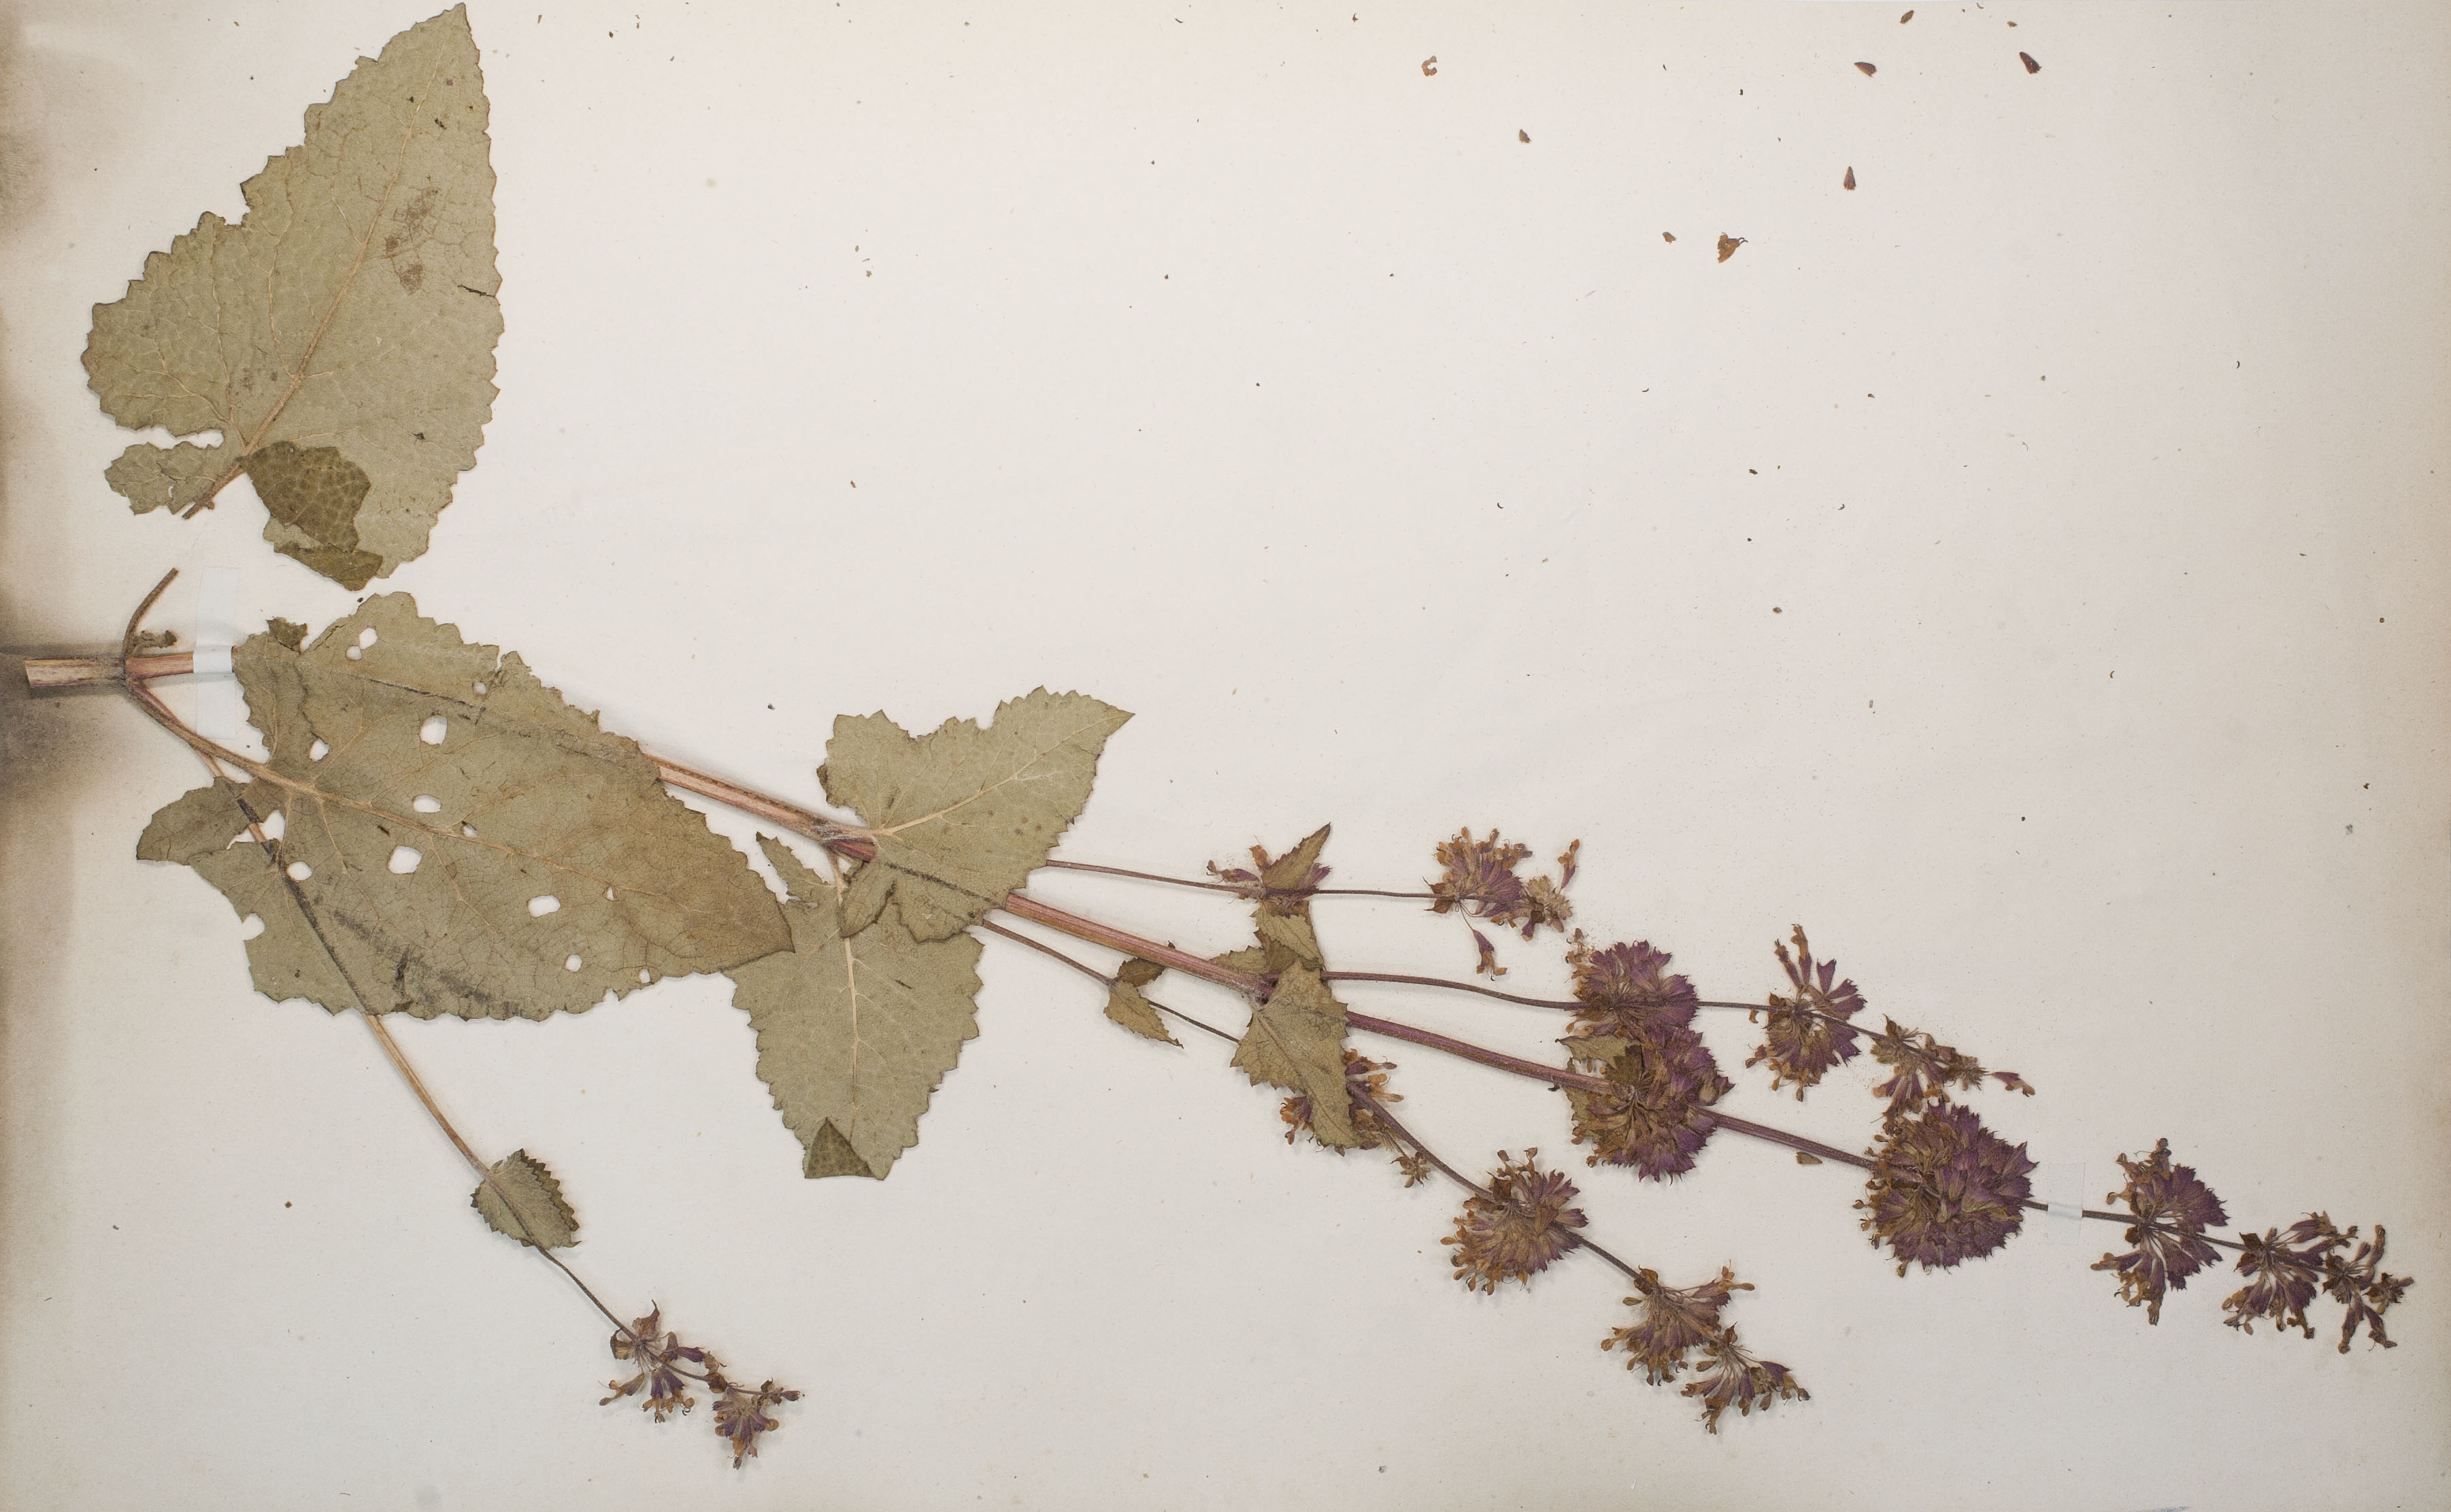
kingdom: Plantae
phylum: Tracheophyta
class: Magnoliopsida
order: Lamiales
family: Lamiaceae
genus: Salvia
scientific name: Salvia verticillata
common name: Whorled clary
